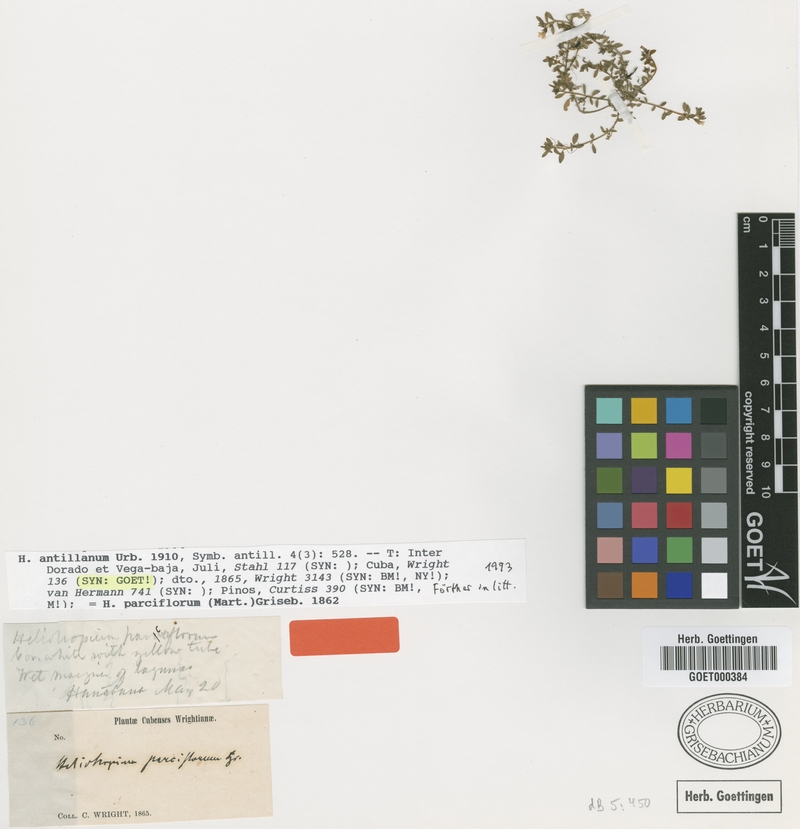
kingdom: Plantae
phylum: Tracheophyta
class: Magnoliopsida
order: Boraginales
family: Heliotropiaceae
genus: Euploca
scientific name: Euploca antillana
